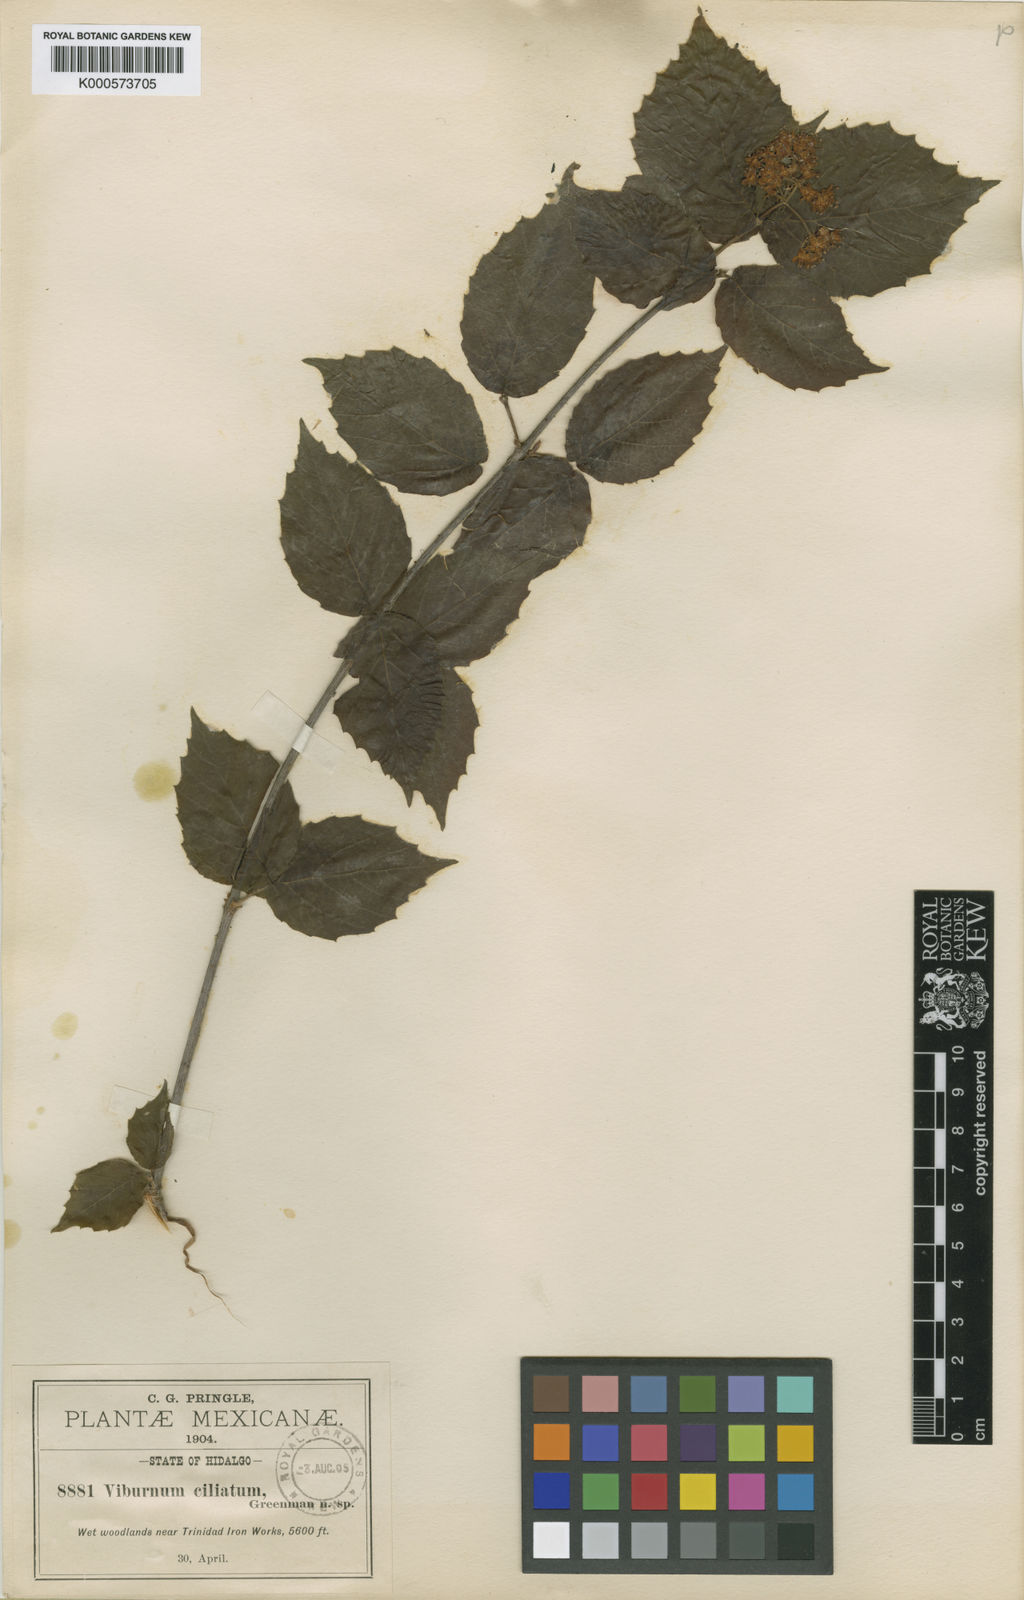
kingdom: Plantae
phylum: Tracheophyta
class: Magnoliopsida
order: Dipsacales
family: Viburnaceae
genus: Viburnum
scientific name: Viburnum ciliatum
